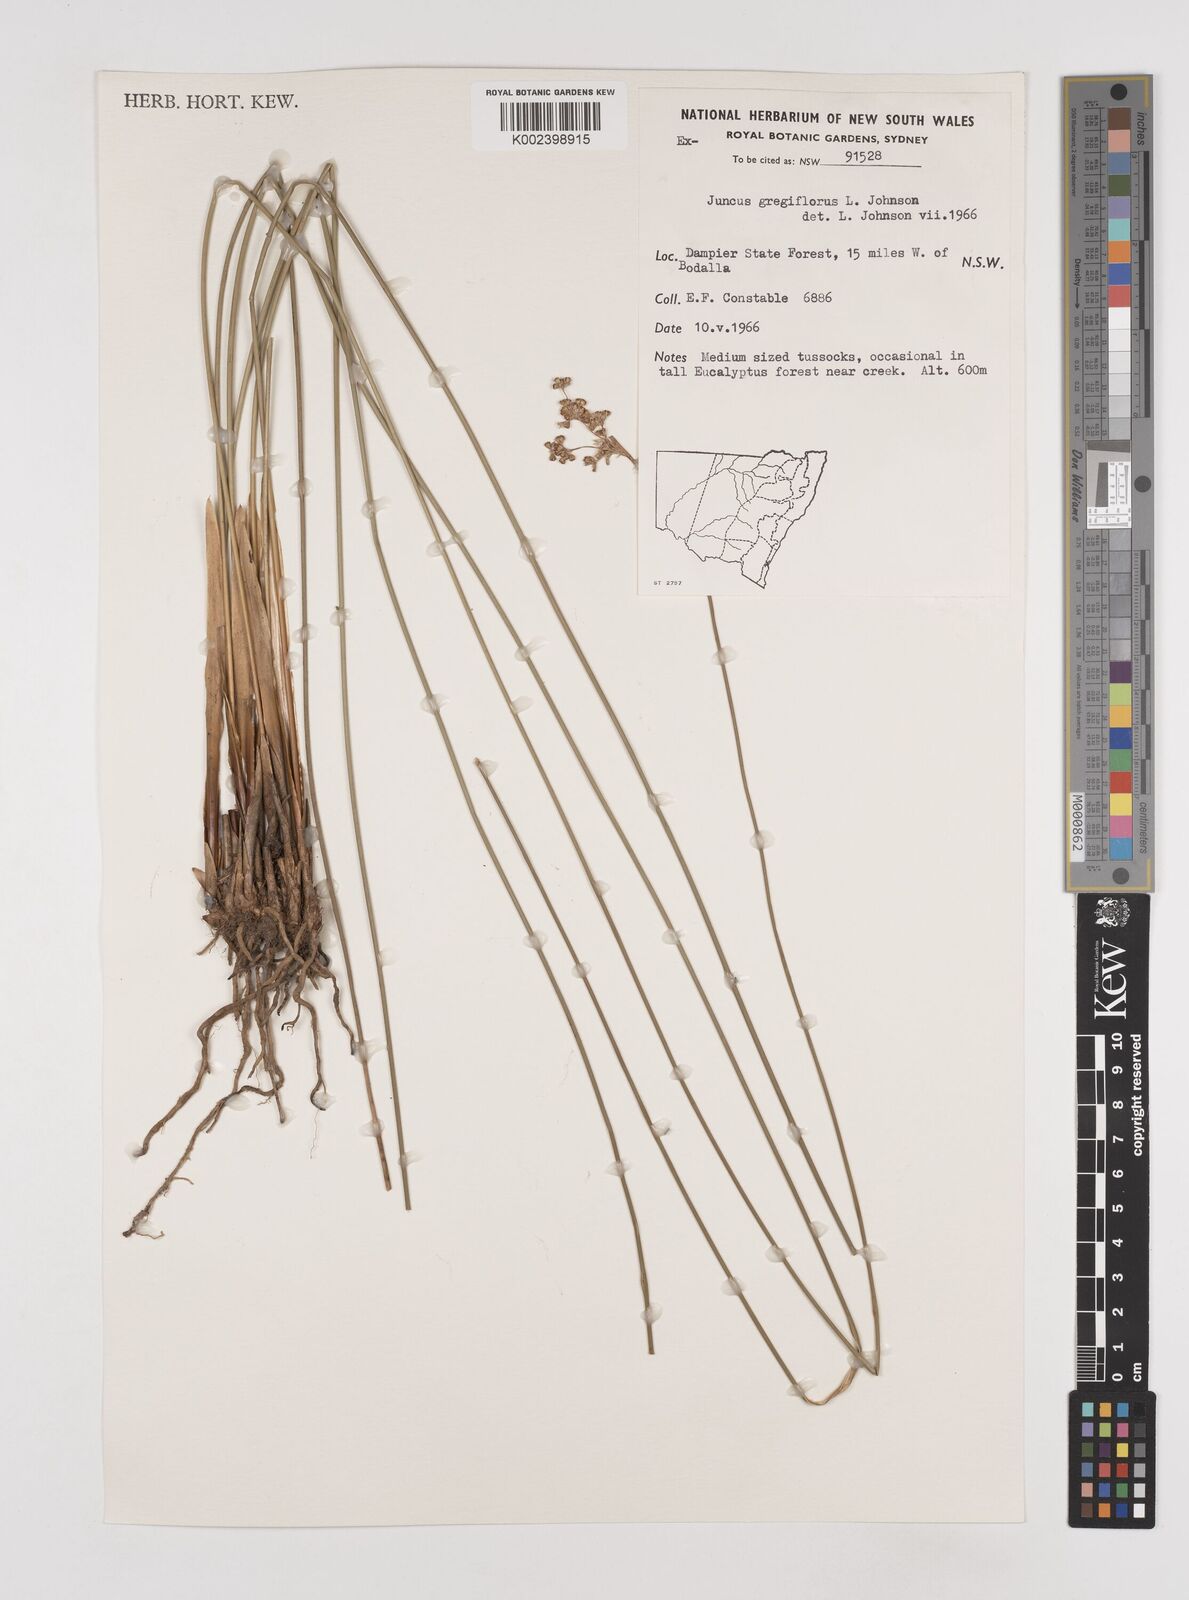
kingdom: Plantae
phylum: Tracheophyta
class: Liliopsida
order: Poales
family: Juncaceae
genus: Juncus
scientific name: Juncus gregiflorus
